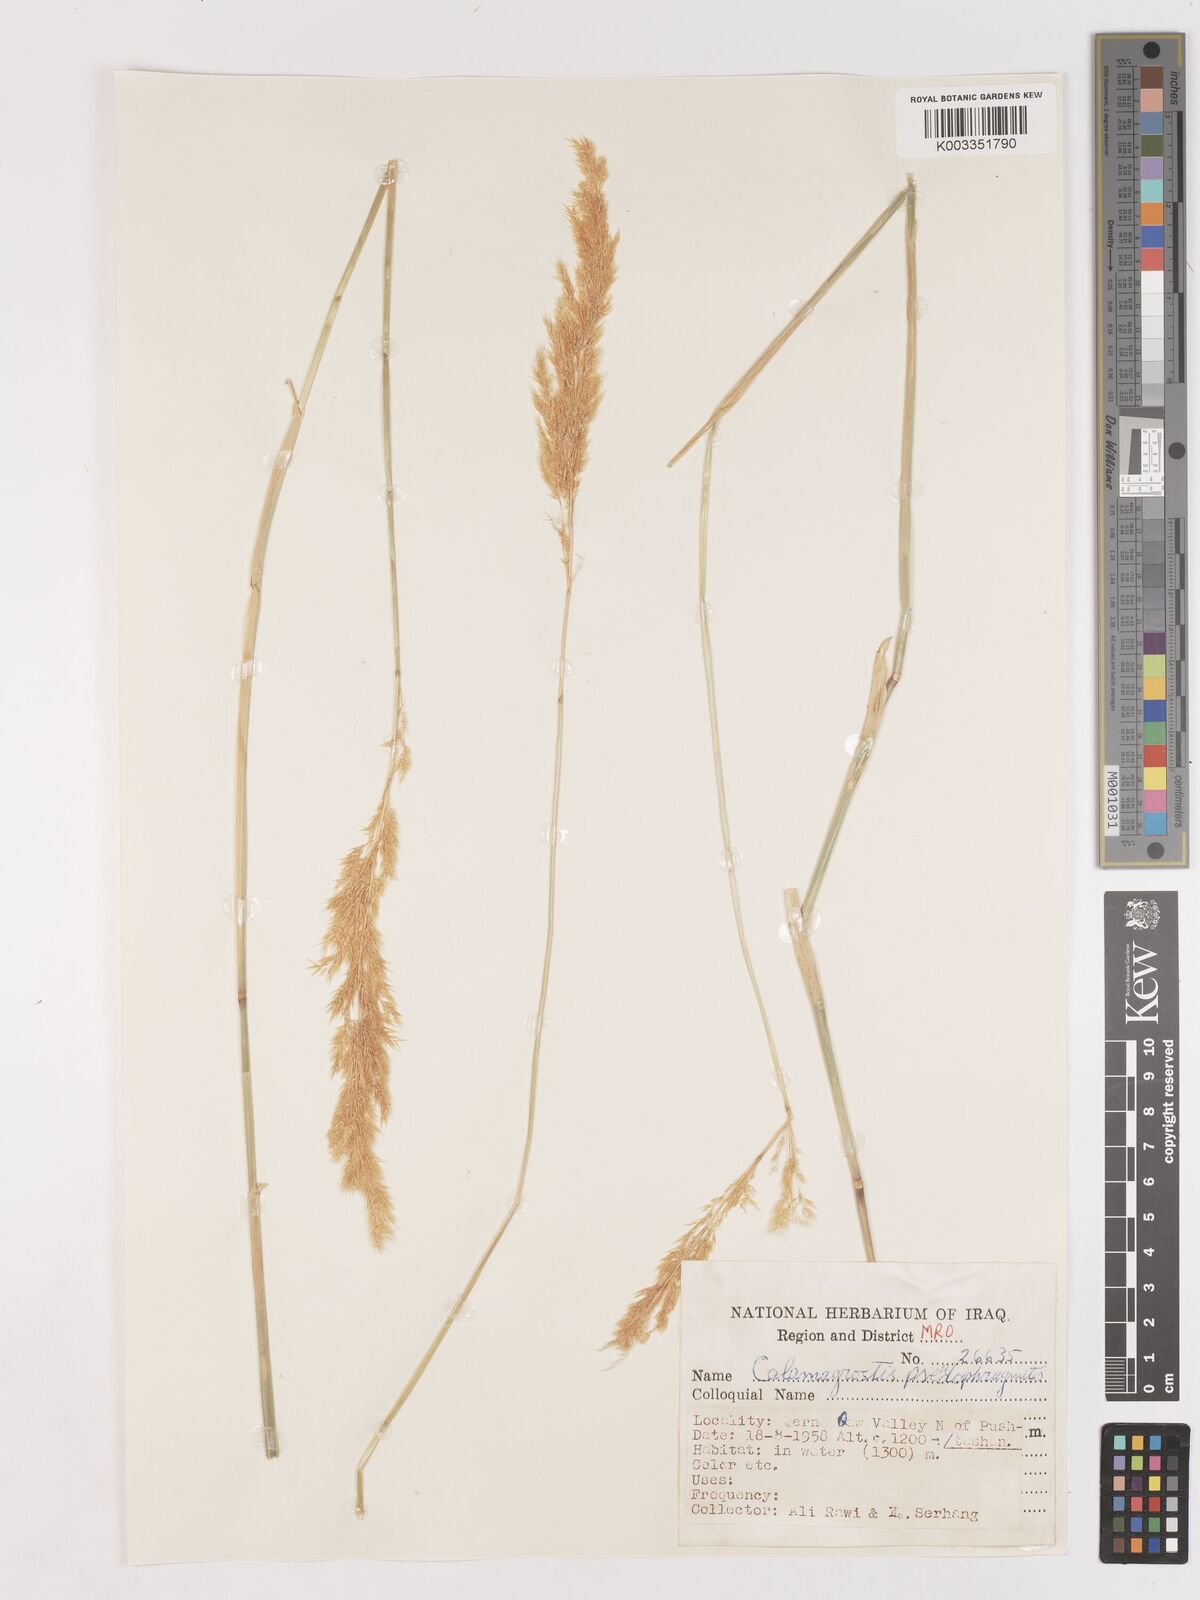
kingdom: Plantae
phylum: Tracheophyta
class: Liliopsida
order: Poales
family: Poaceae
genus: Calamagrostis
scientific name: Calamagrostis pseudophragmites
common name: Coastal small-reed
